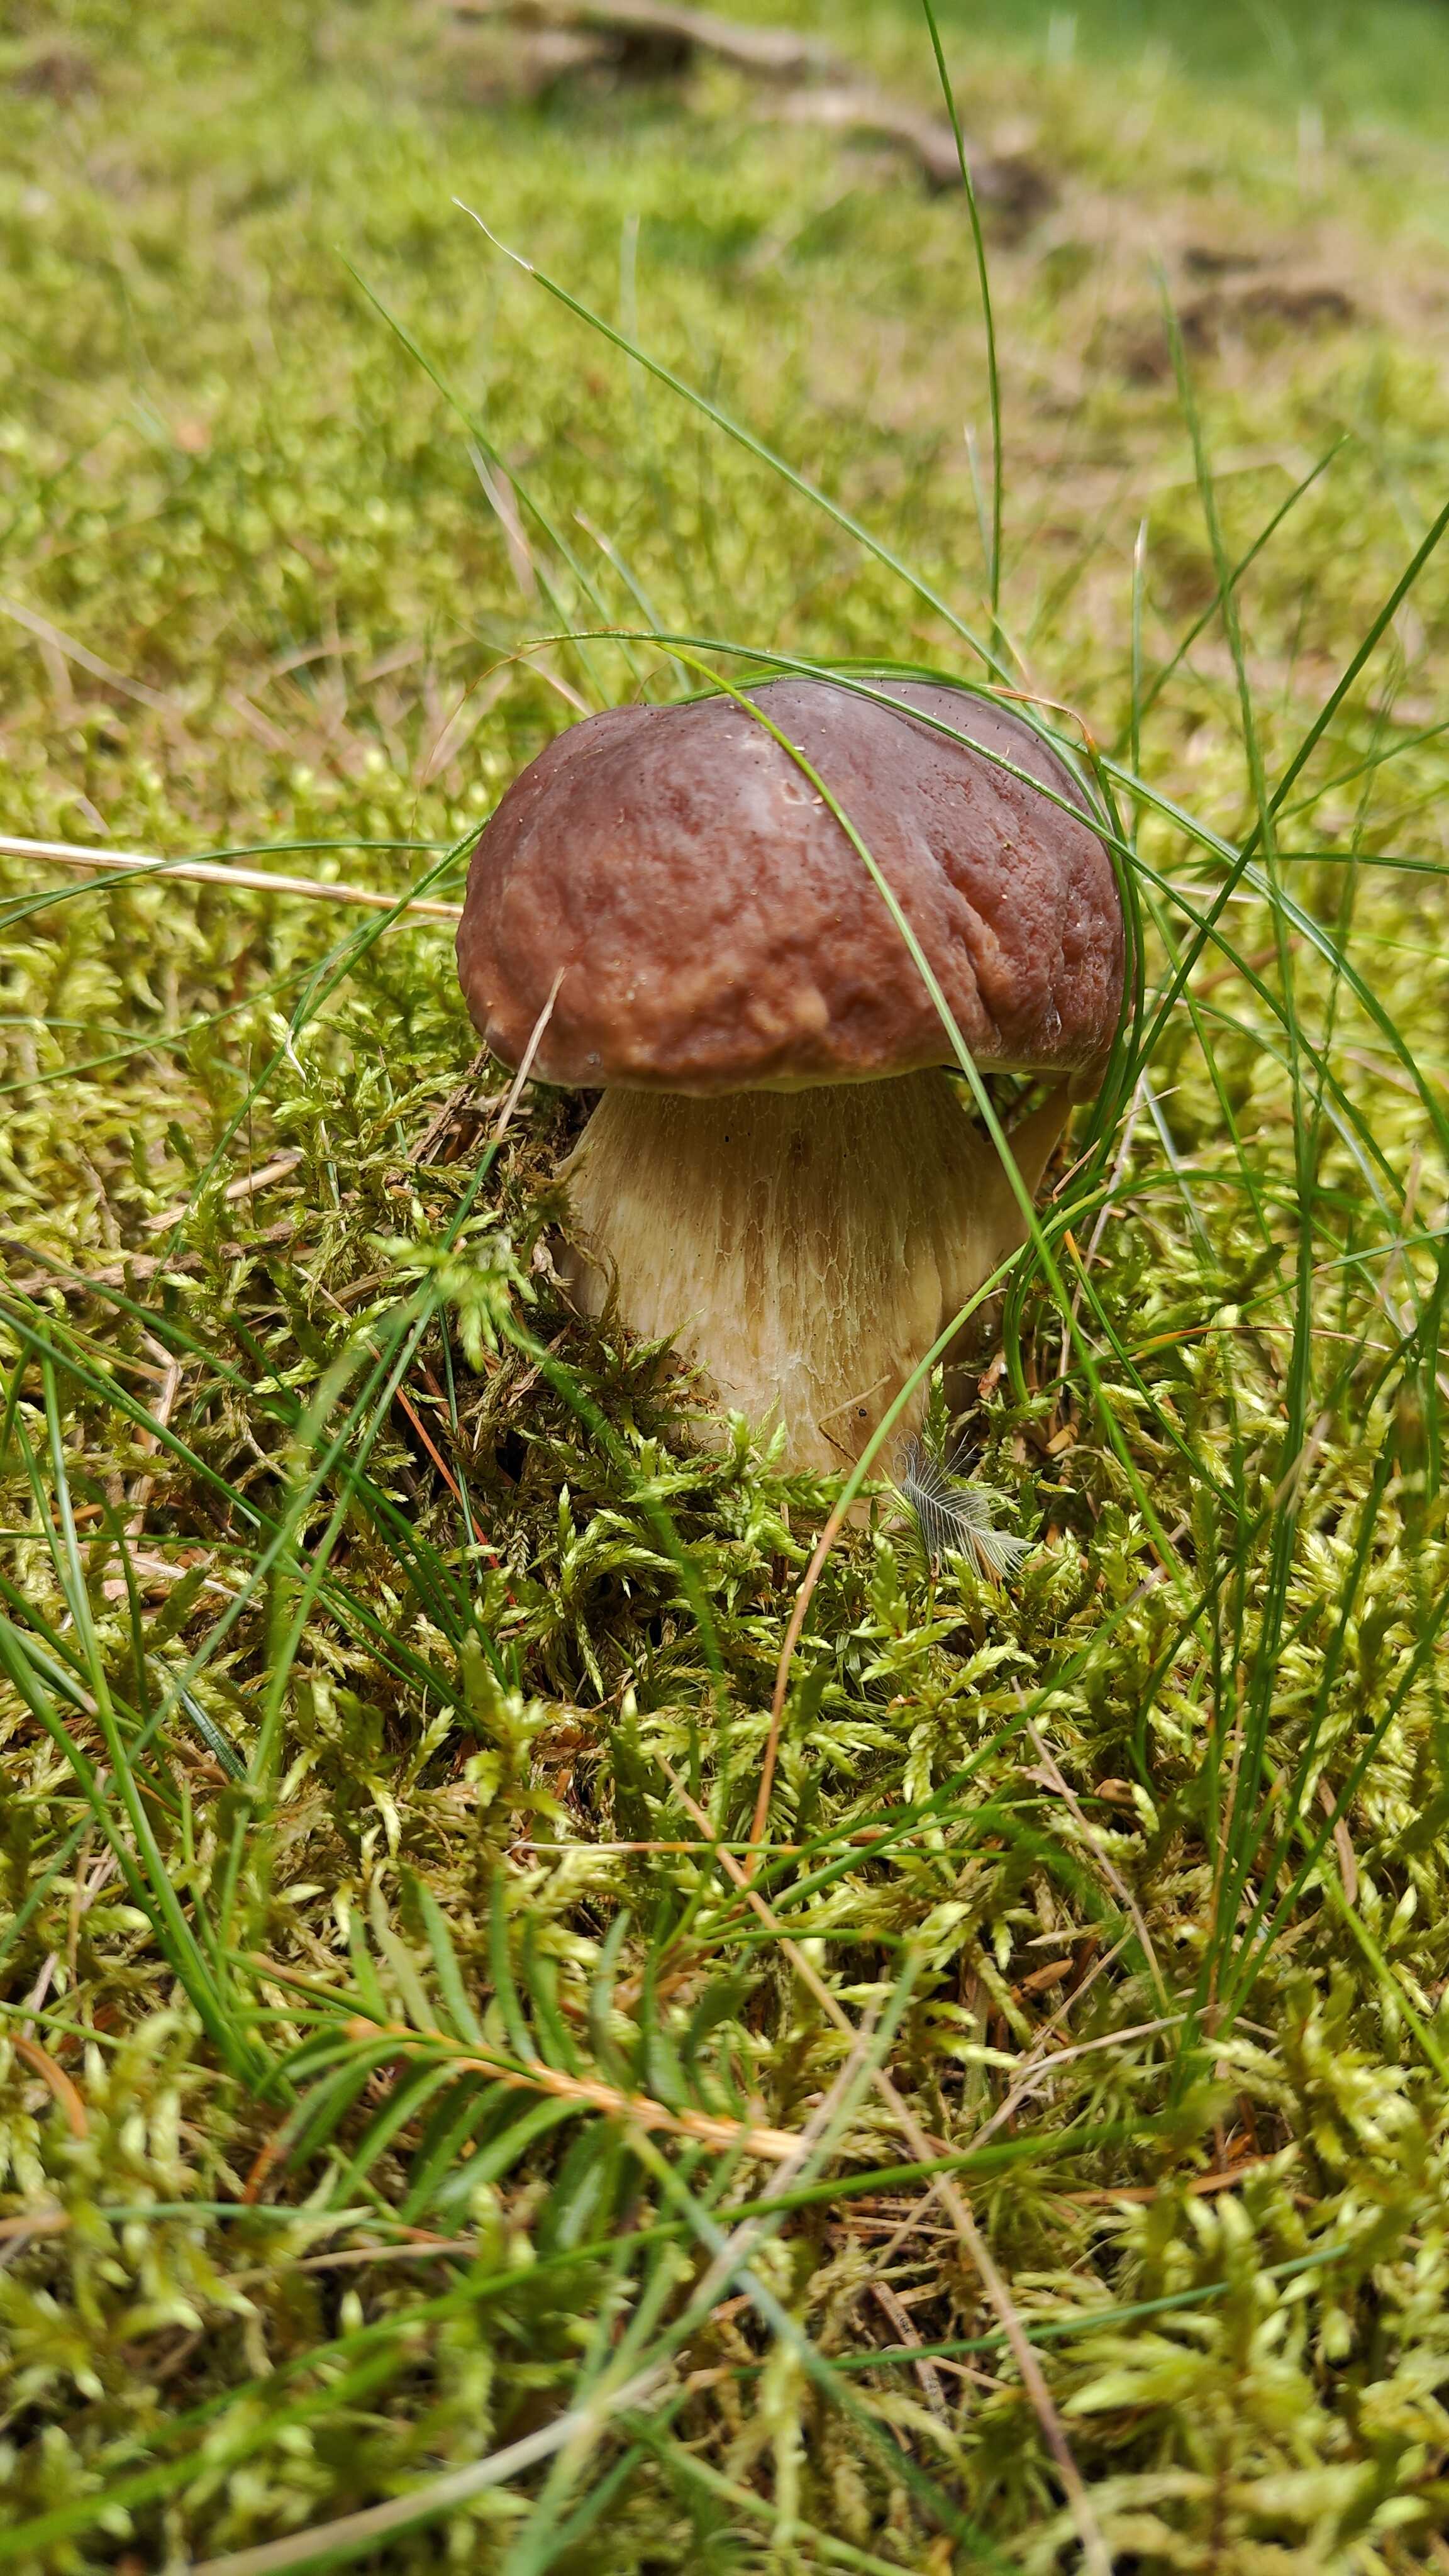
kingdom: Fungi
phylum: Basidiomycota
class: Agaricomycetes
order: Boletales
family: Boletaceae
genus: Boletus
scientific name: Boletus edulis
